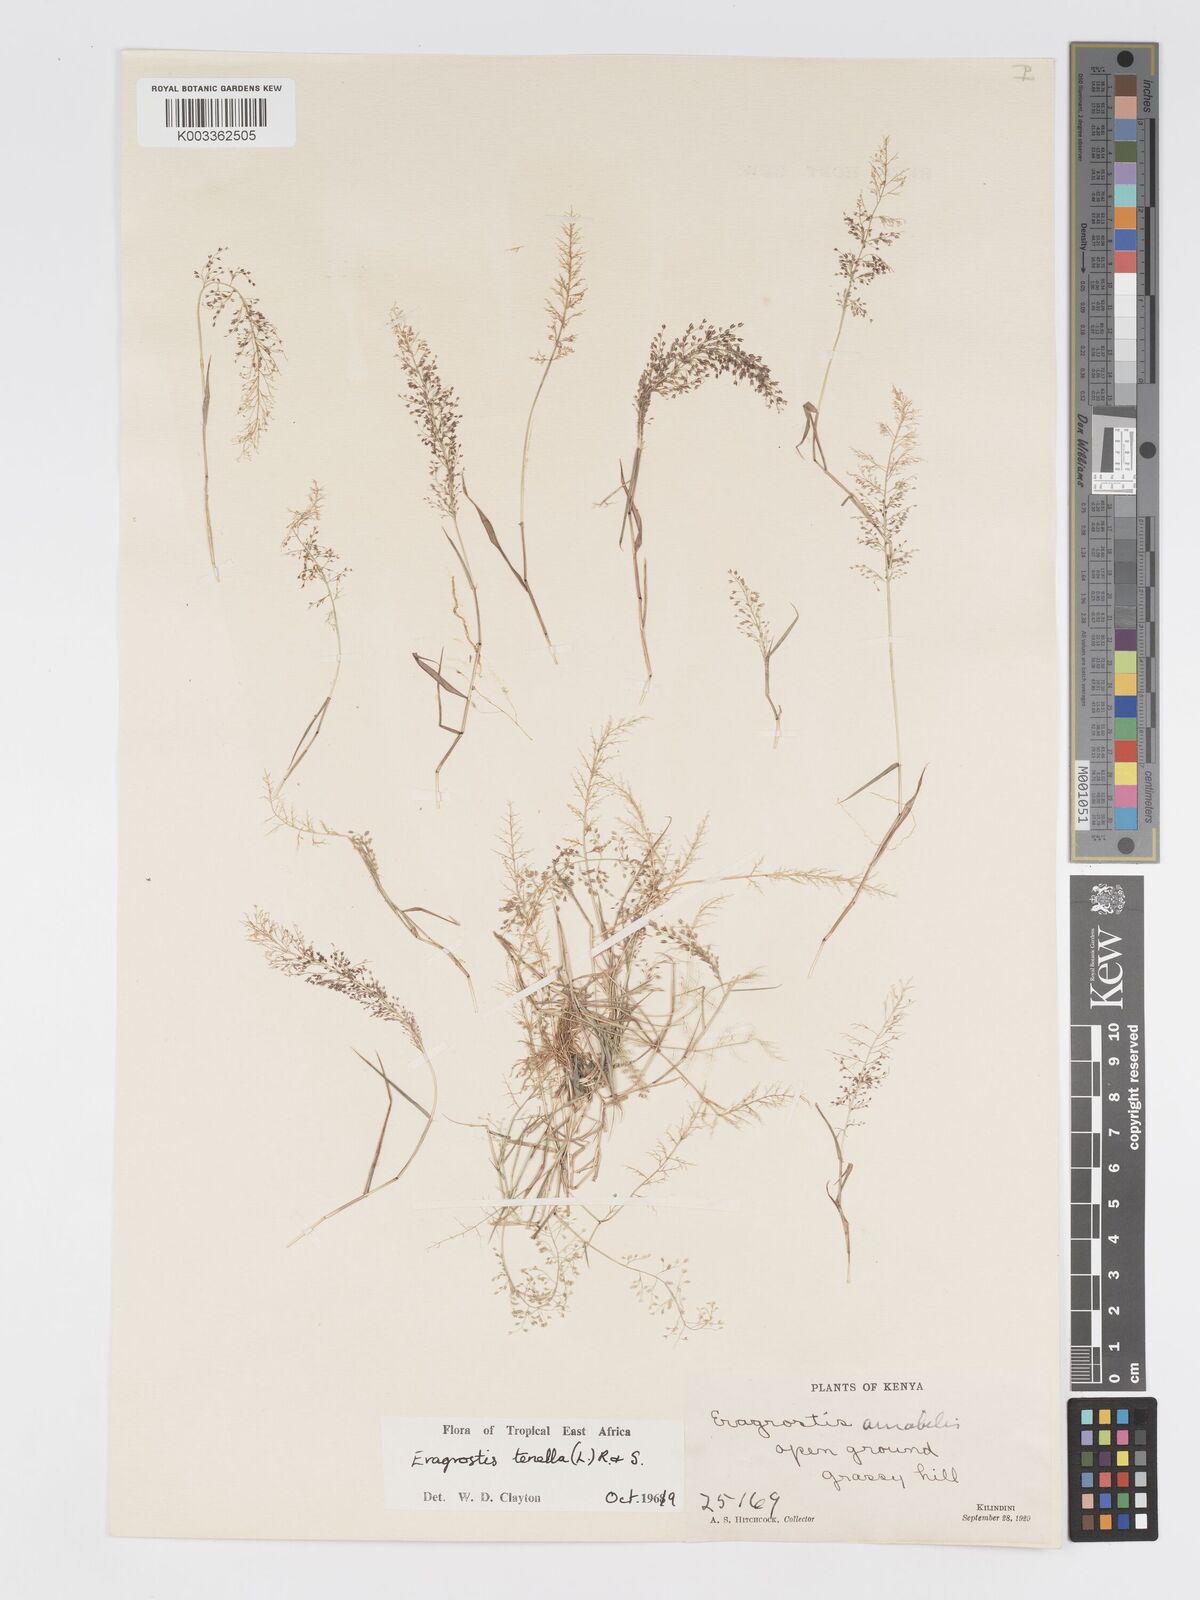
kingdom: Plantae
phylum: Tracheophyta
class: Liliopsida
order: Poales
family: Poaceae
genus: Eragrostis
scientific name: Eragrostis tenella
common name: Japanese lovegrass
